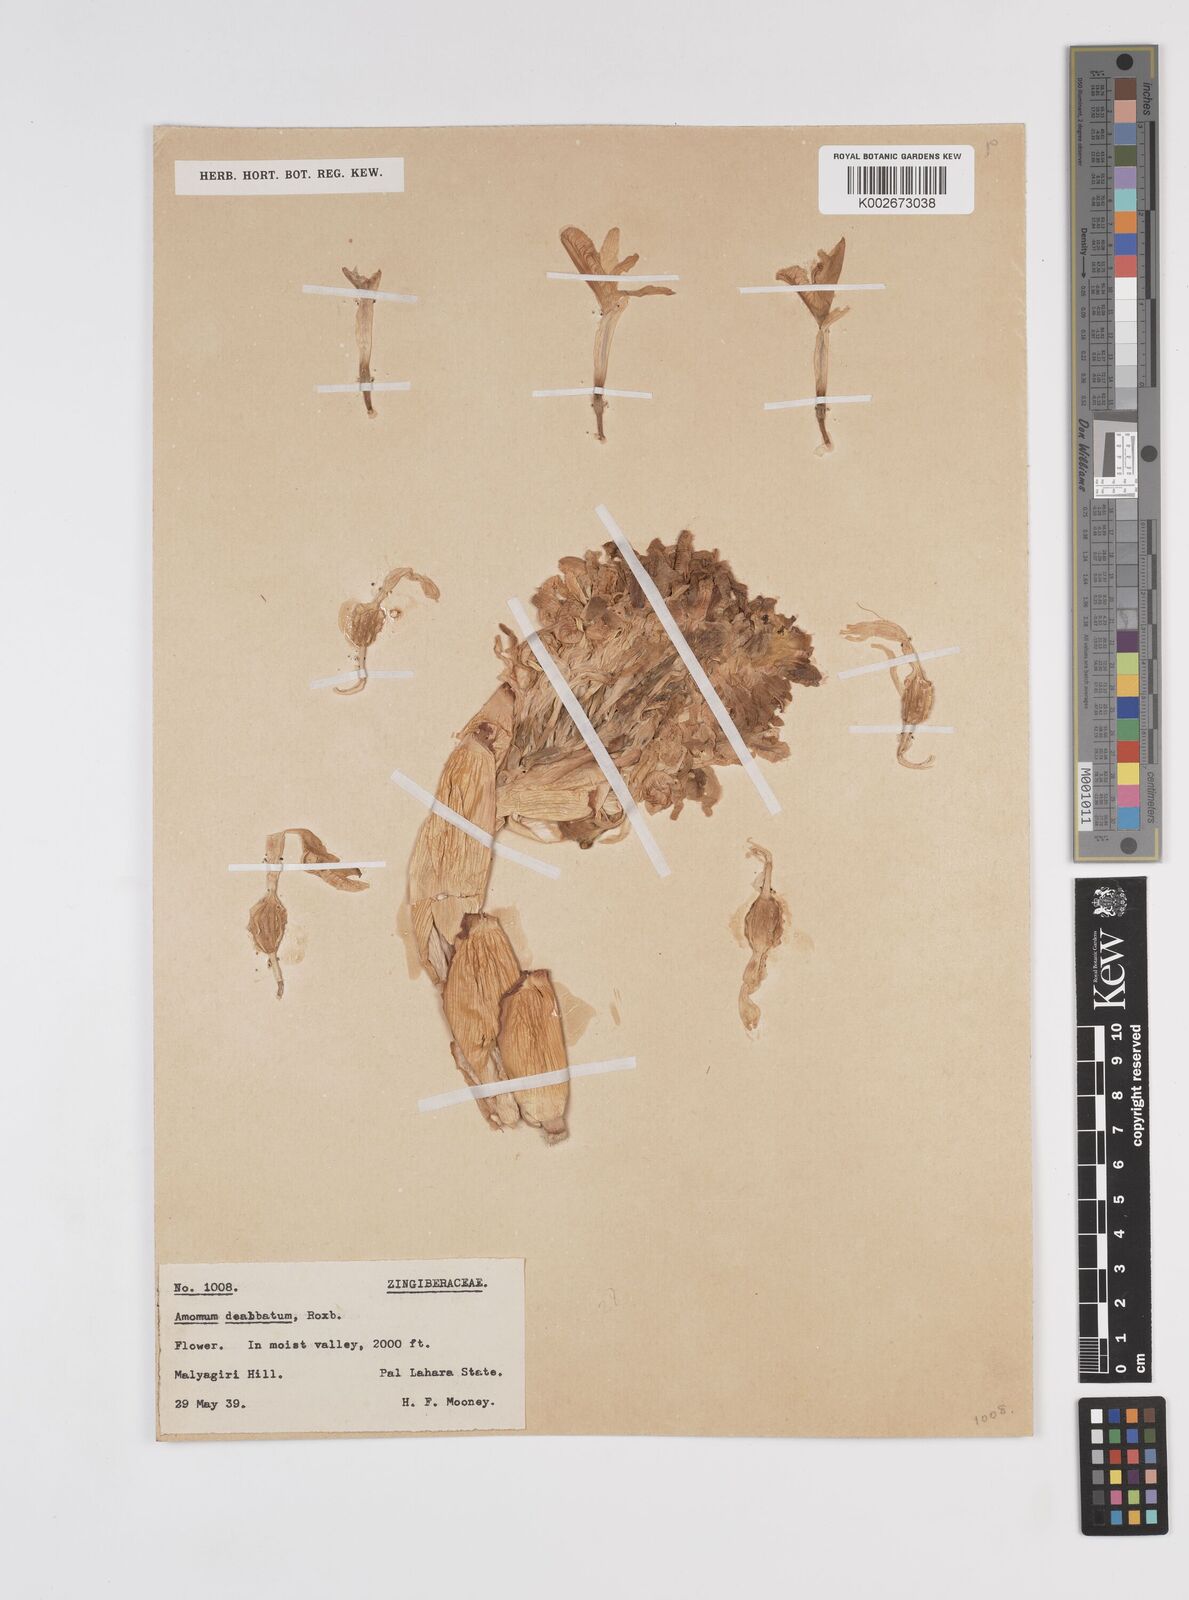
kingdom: Plantae
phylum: Tracheophyta
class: Liliopsida
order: Zingiberales
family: Zingiberaceae
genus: Amomum
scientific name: Amomum dealbatum
